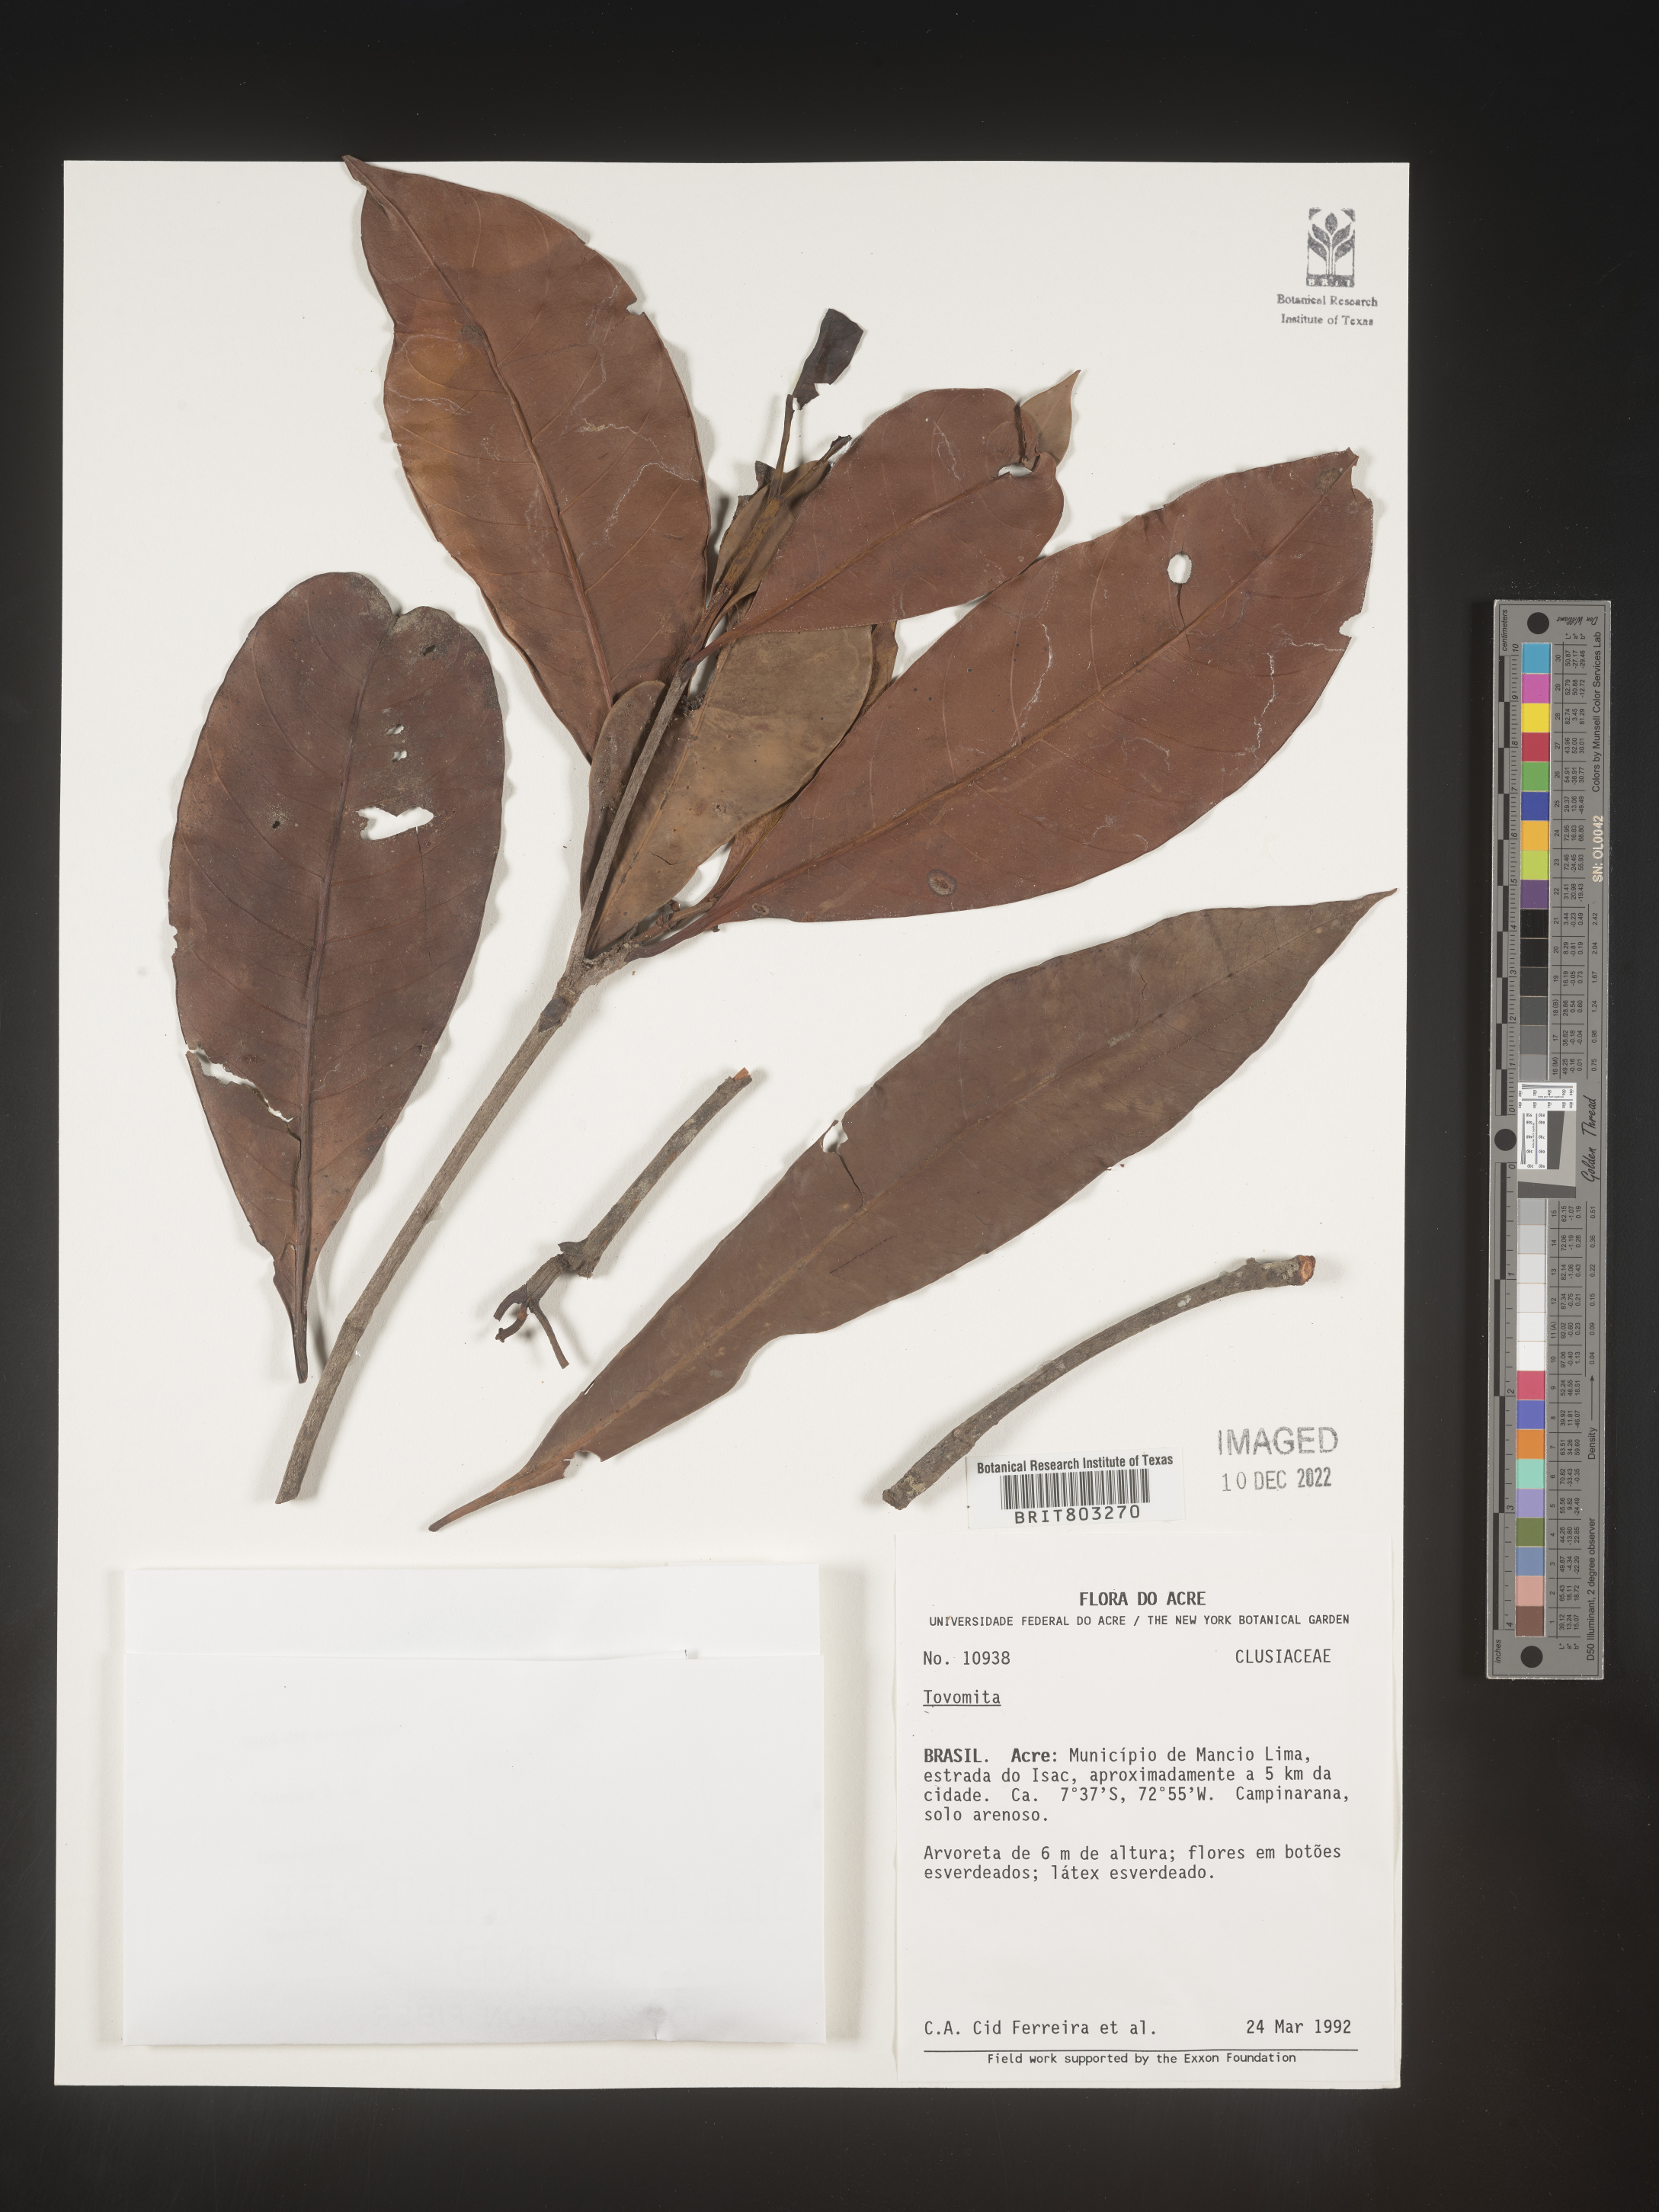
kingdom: Plantae
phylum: Tracheophyta
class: Magnoliopsida
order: Malpighiales
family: Clusiaceae
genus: Tovomita
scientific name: Tovomita
